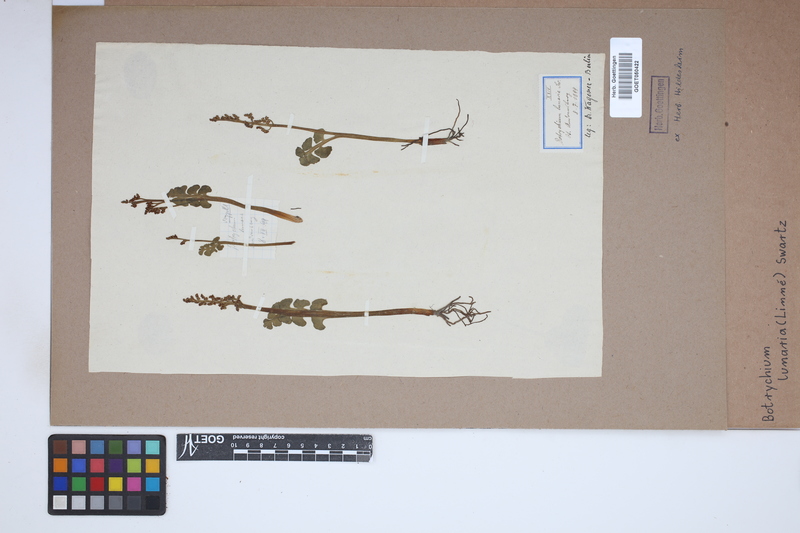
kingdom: Plantae
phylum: Tracheophyta
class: Polypodiopsida
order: Ophioglossales
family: Ophioglossaceae
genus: Botrychium
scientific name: Botrychium lunaria
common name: Moonwort
